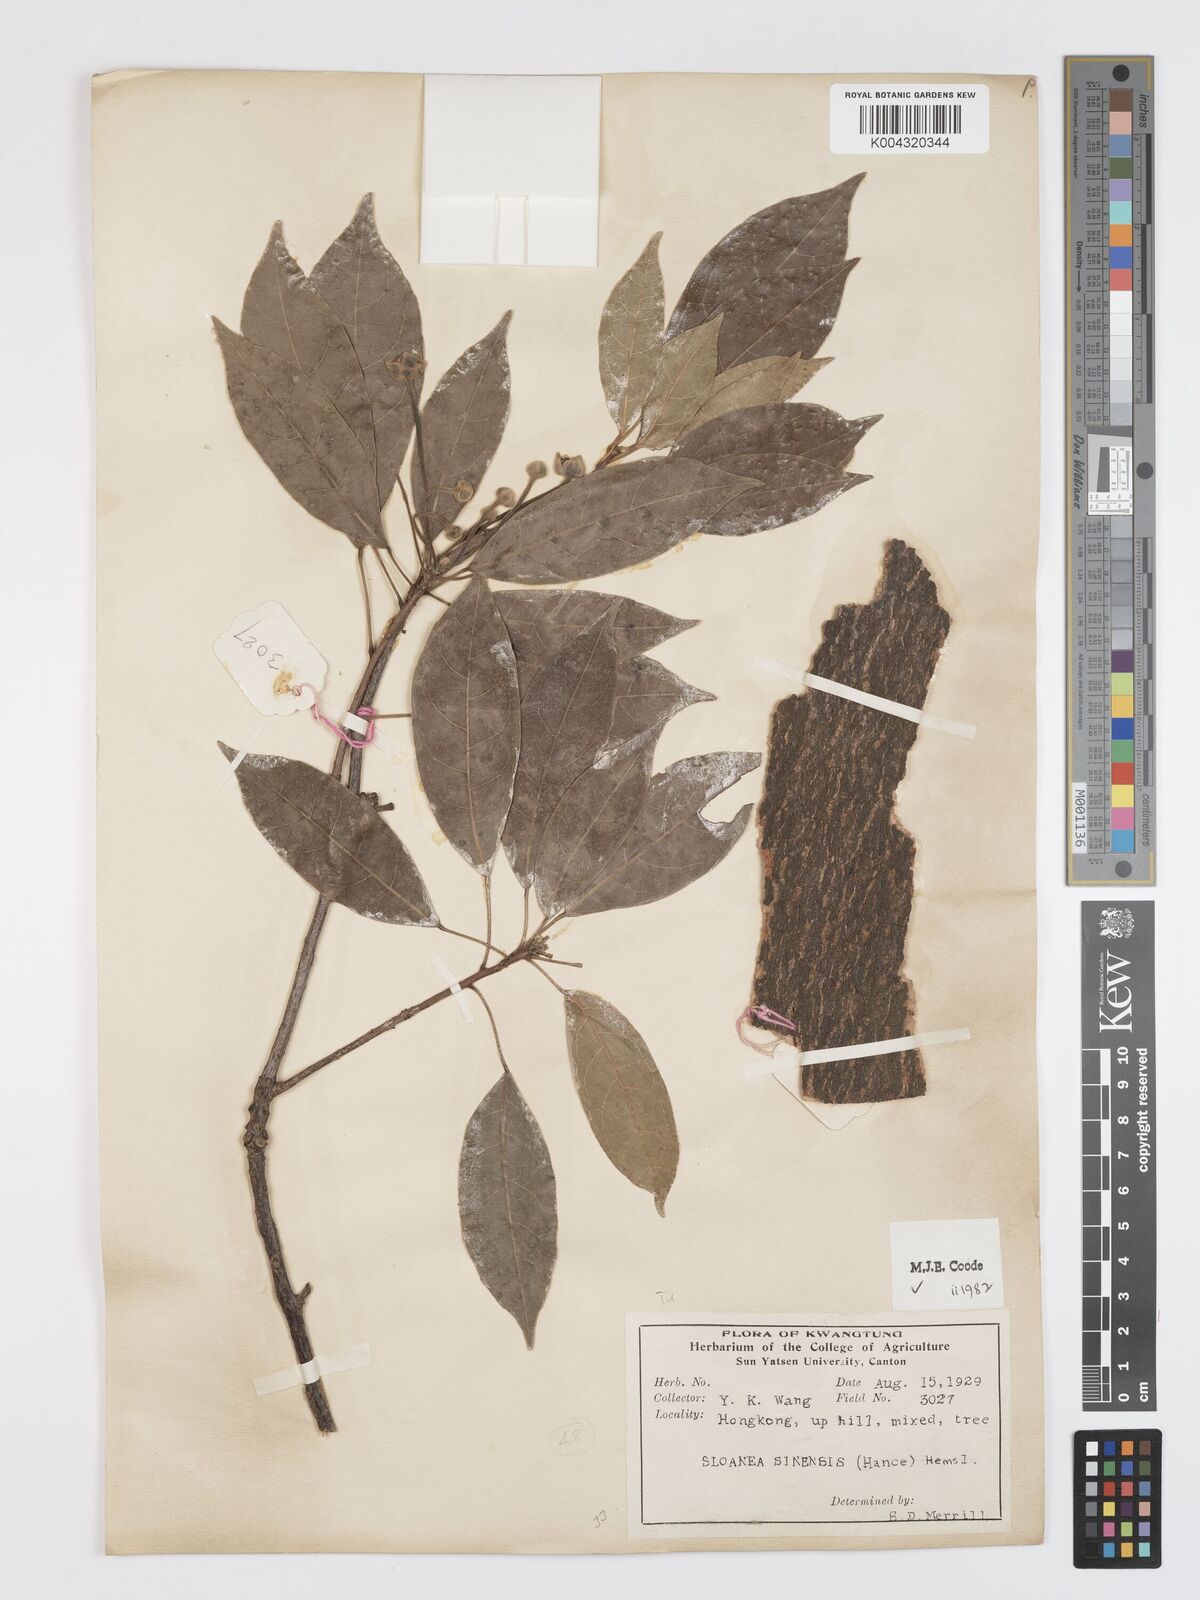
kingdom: Plantae
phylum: Tracheophyta
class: Magnoliopsida
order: Oxalidales
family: Elaeocarpaceae
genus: Sloanea
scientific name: Sloanea sinensis
